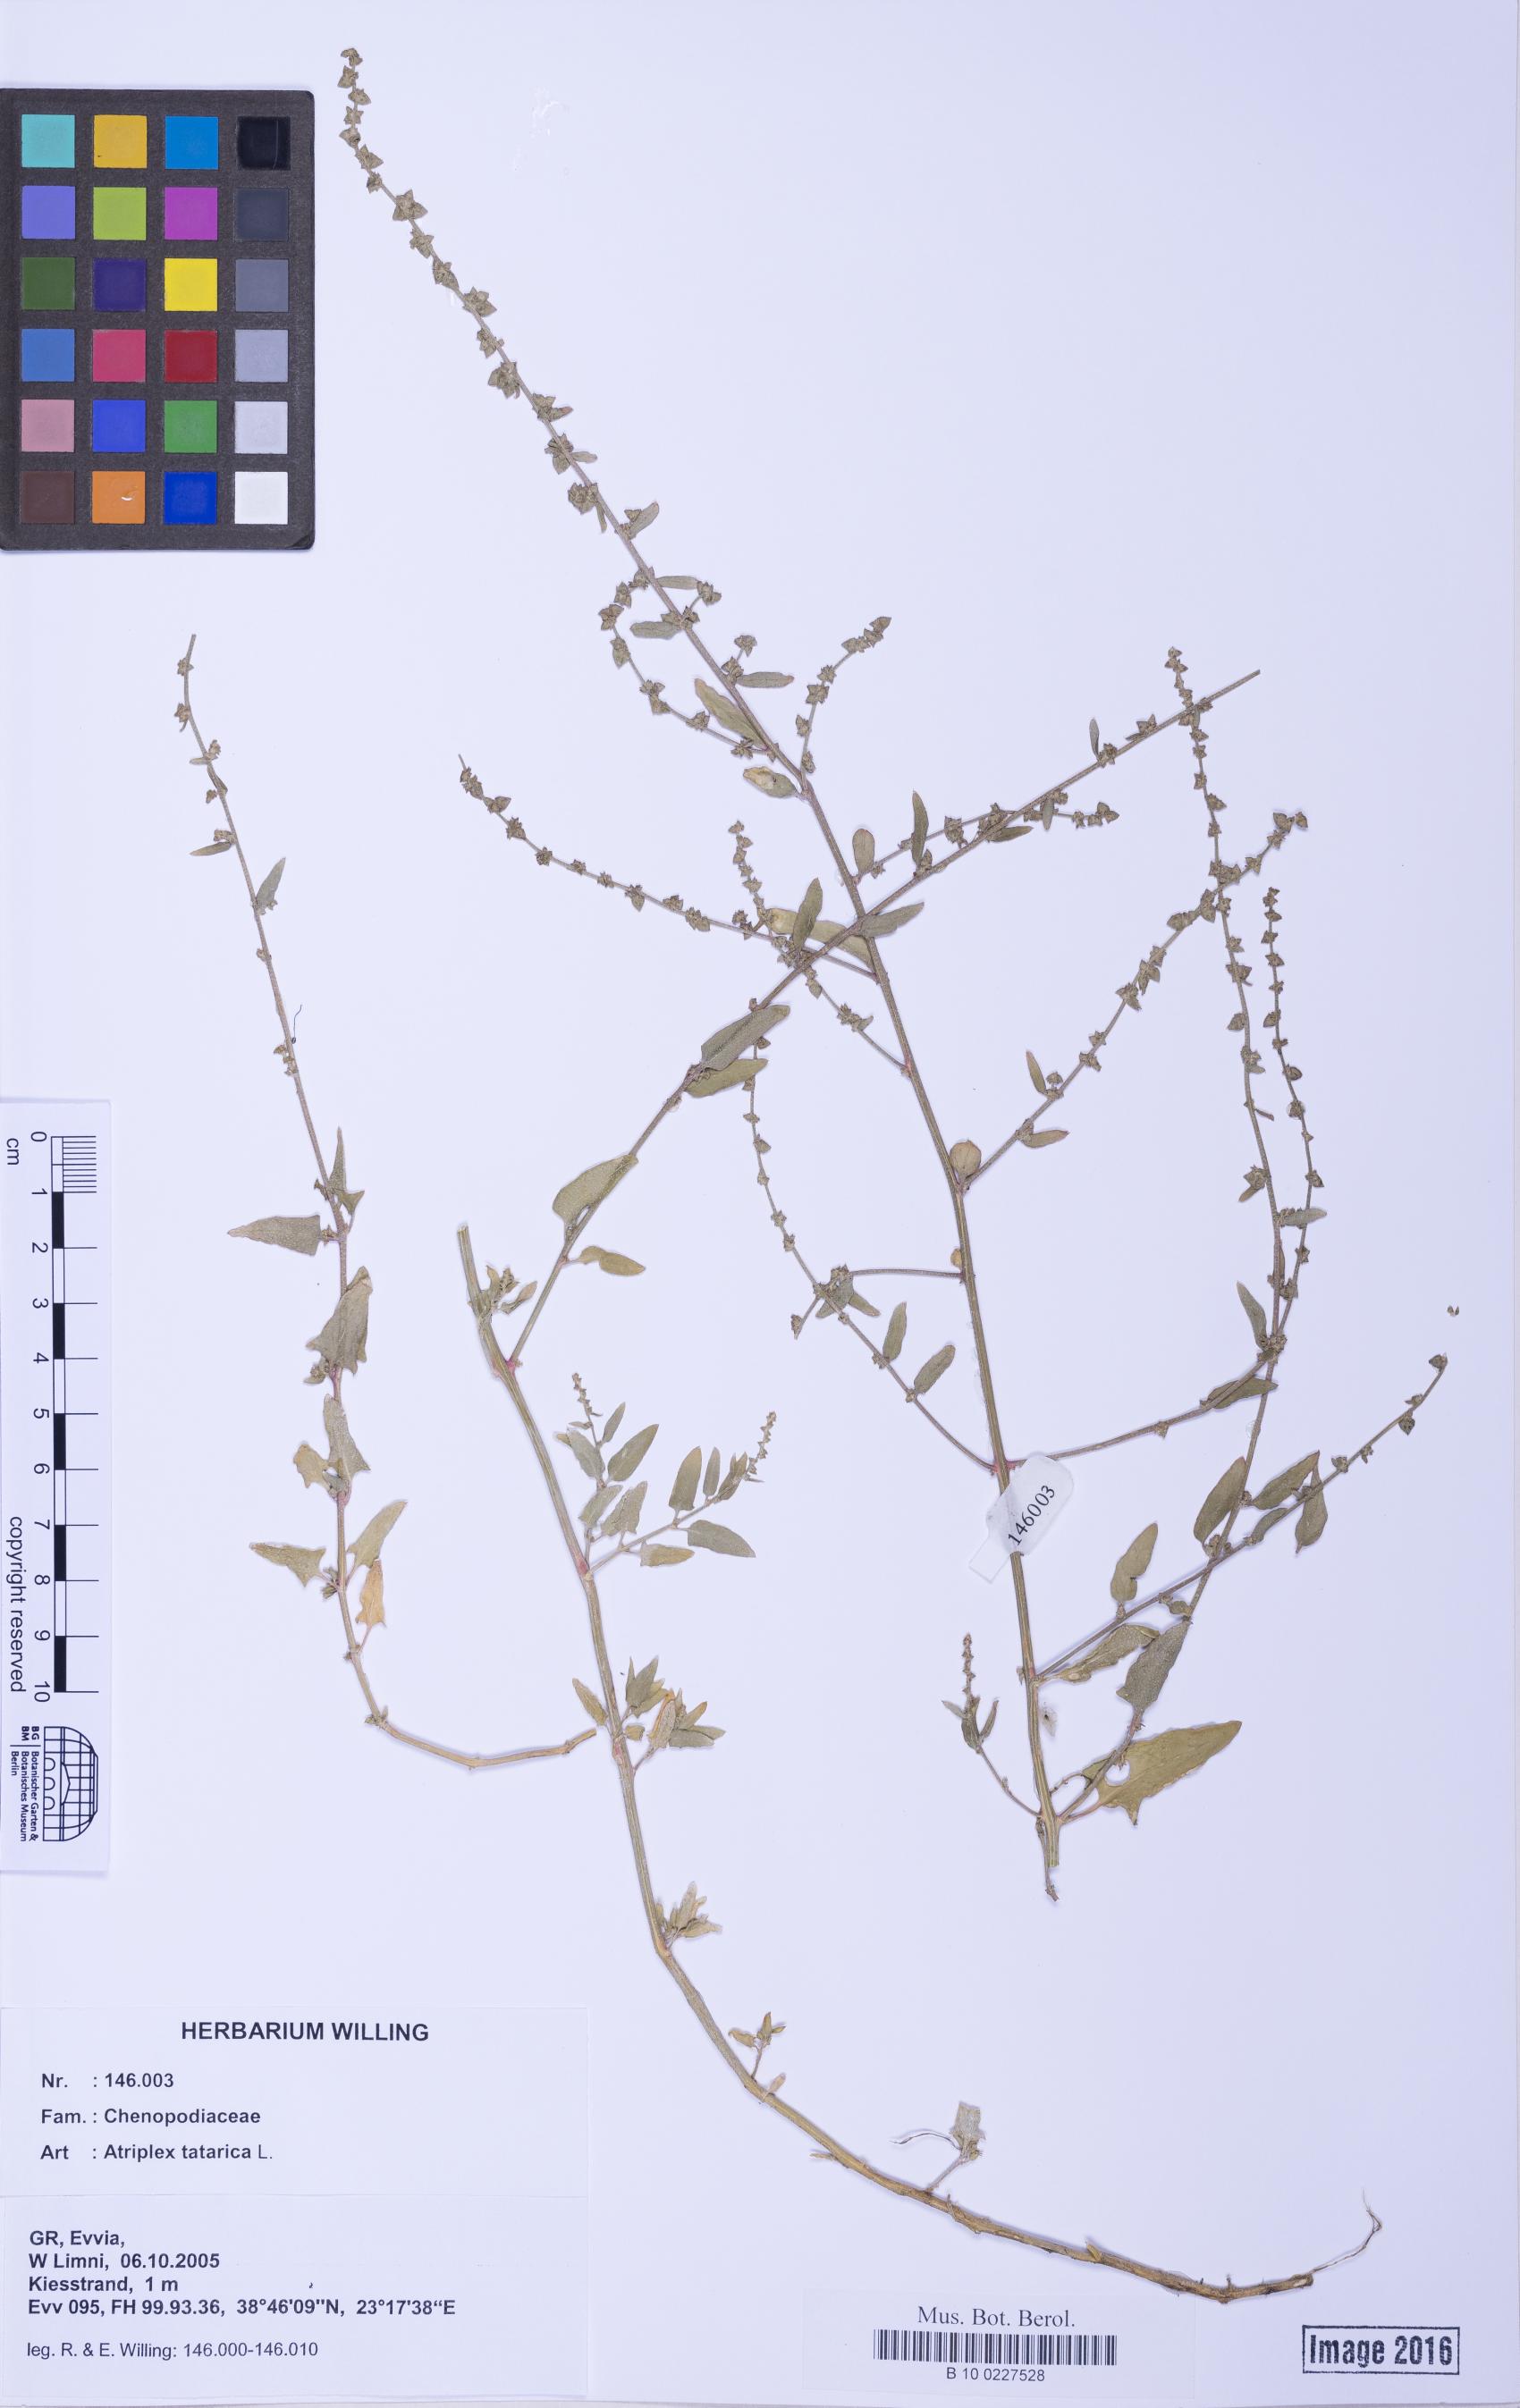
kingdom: Plantae
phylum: Tracheophyta
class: Magnoliopsida
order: Caryophyllales
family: Amaranthaceae
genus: Atriplex
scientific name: Atriplex prostrata
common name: Spear-leaved orache
